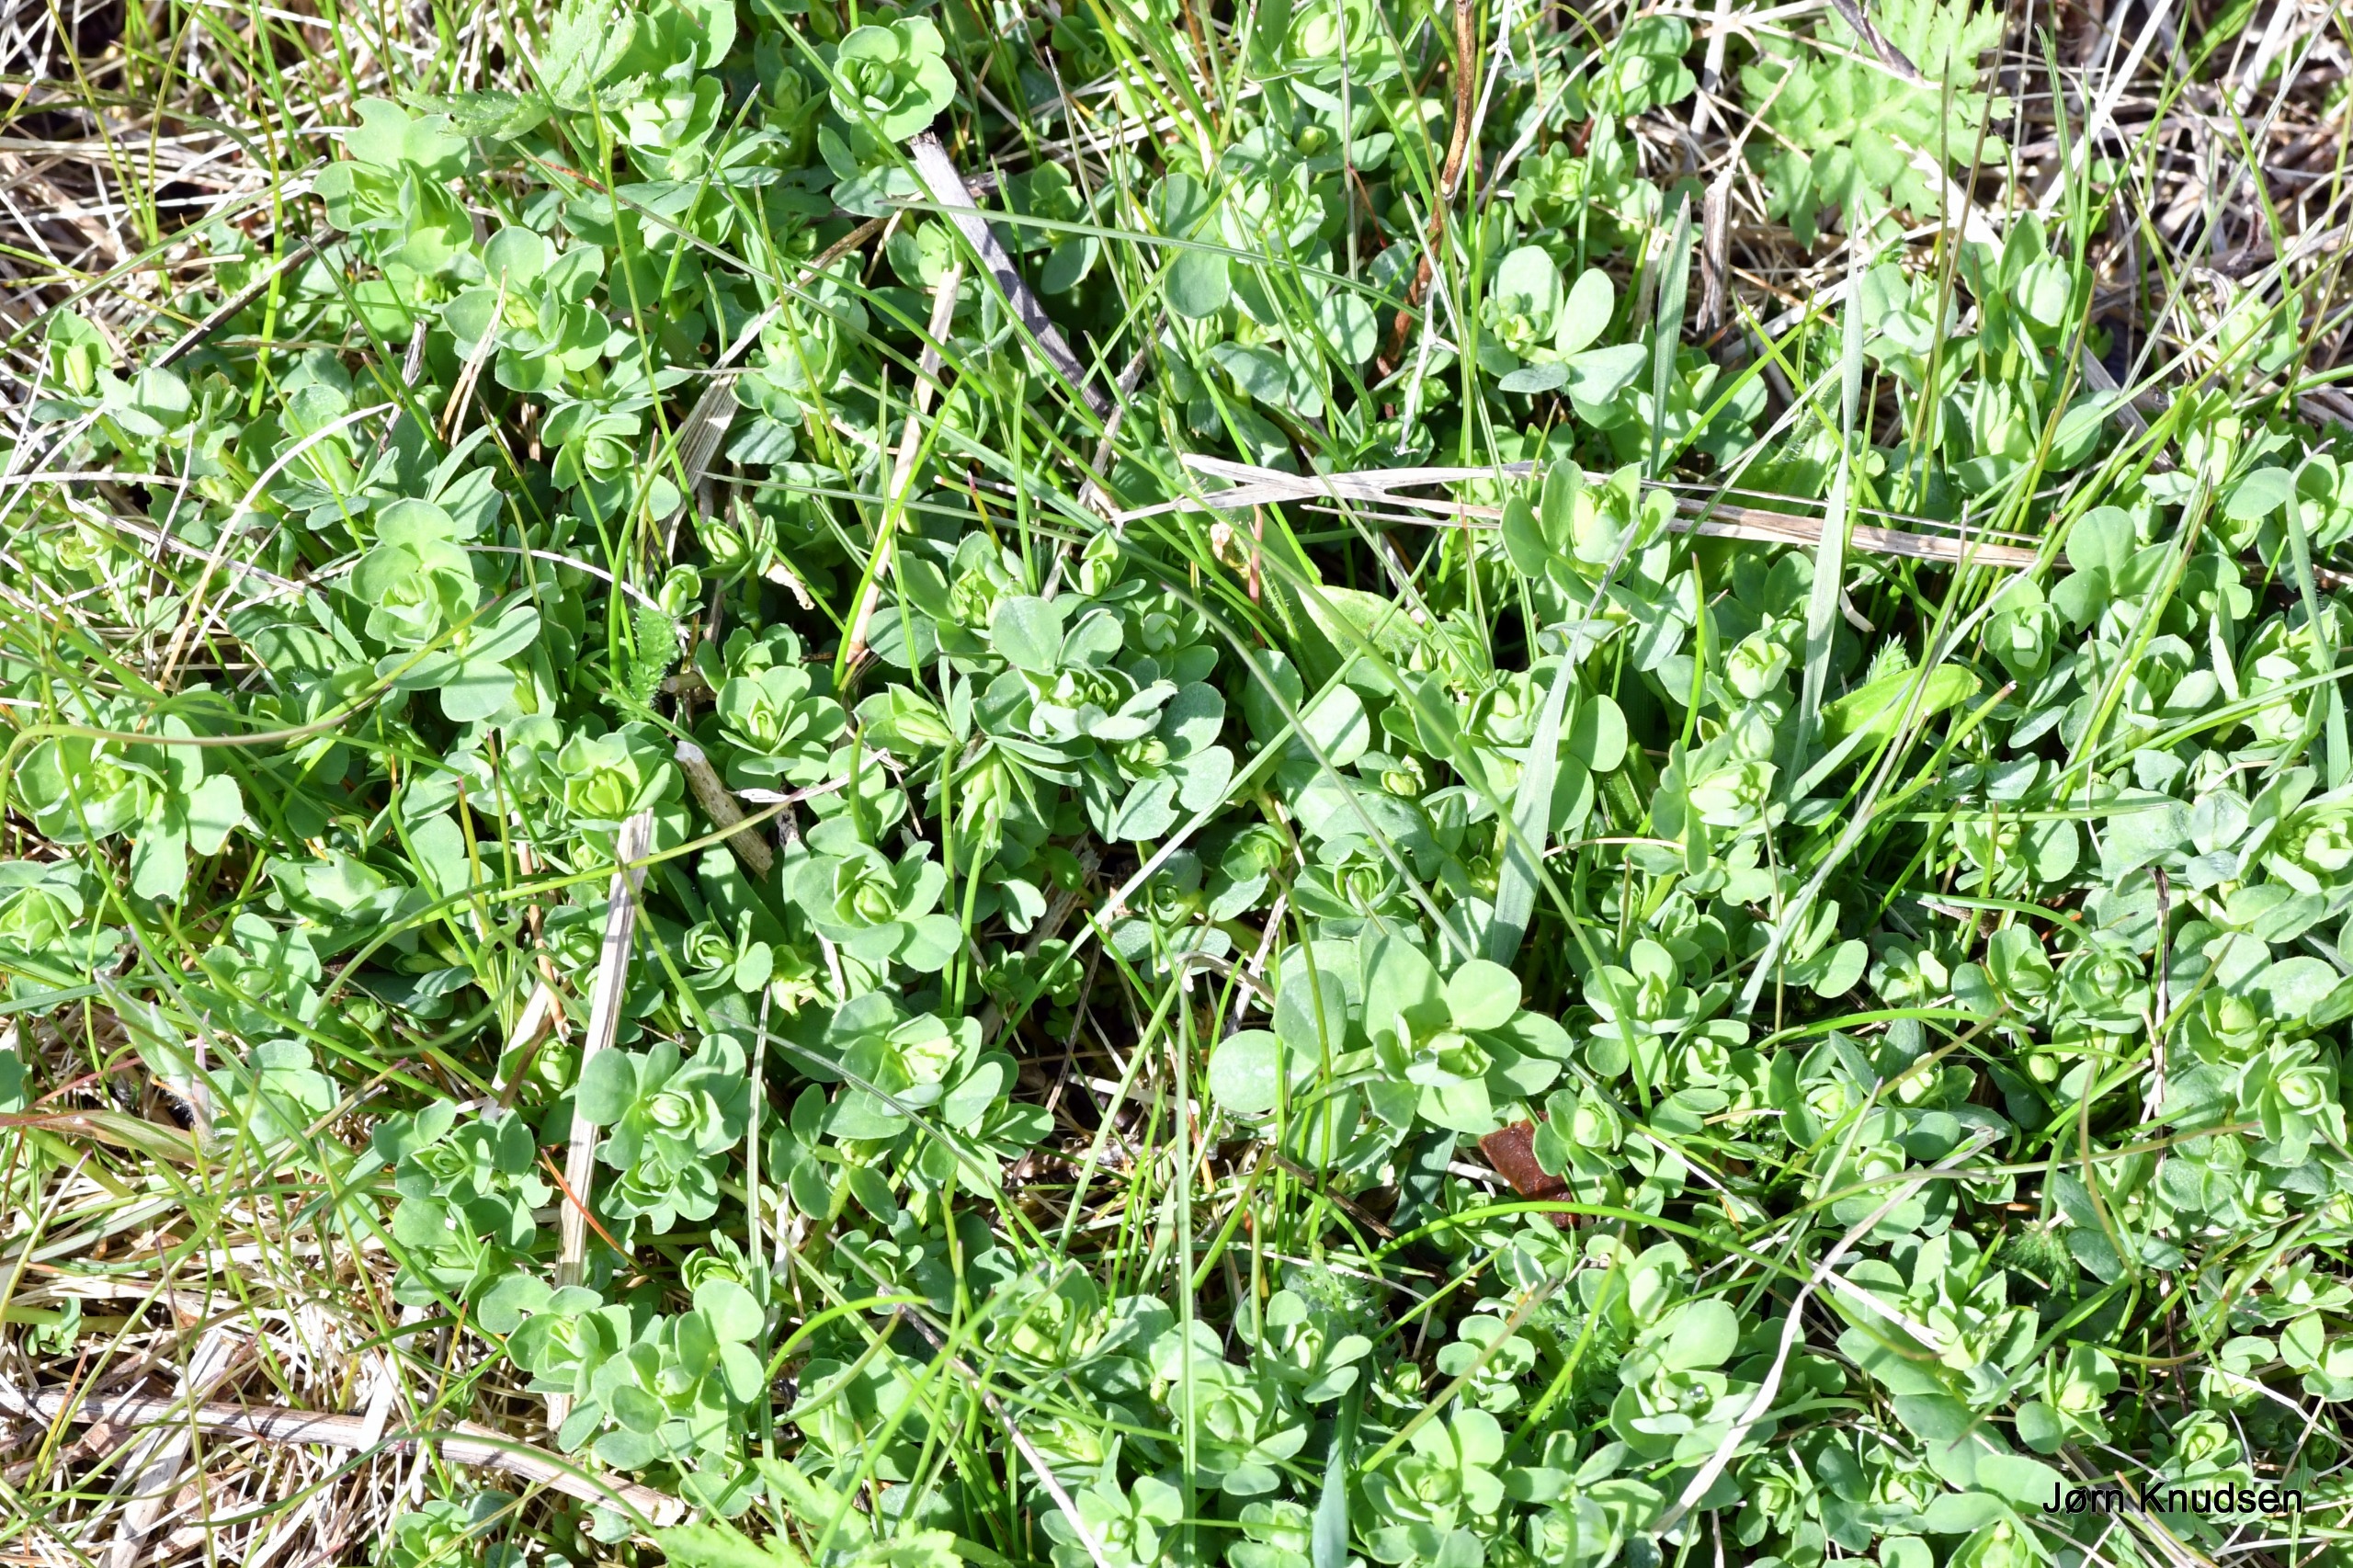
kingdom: Plantae
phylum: Tracheophyta
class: Magnoliopsida
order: Fabales
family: Fabaceae
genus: Lotus
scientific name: Lotus corniculatus
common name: Almindelig kællingetand
